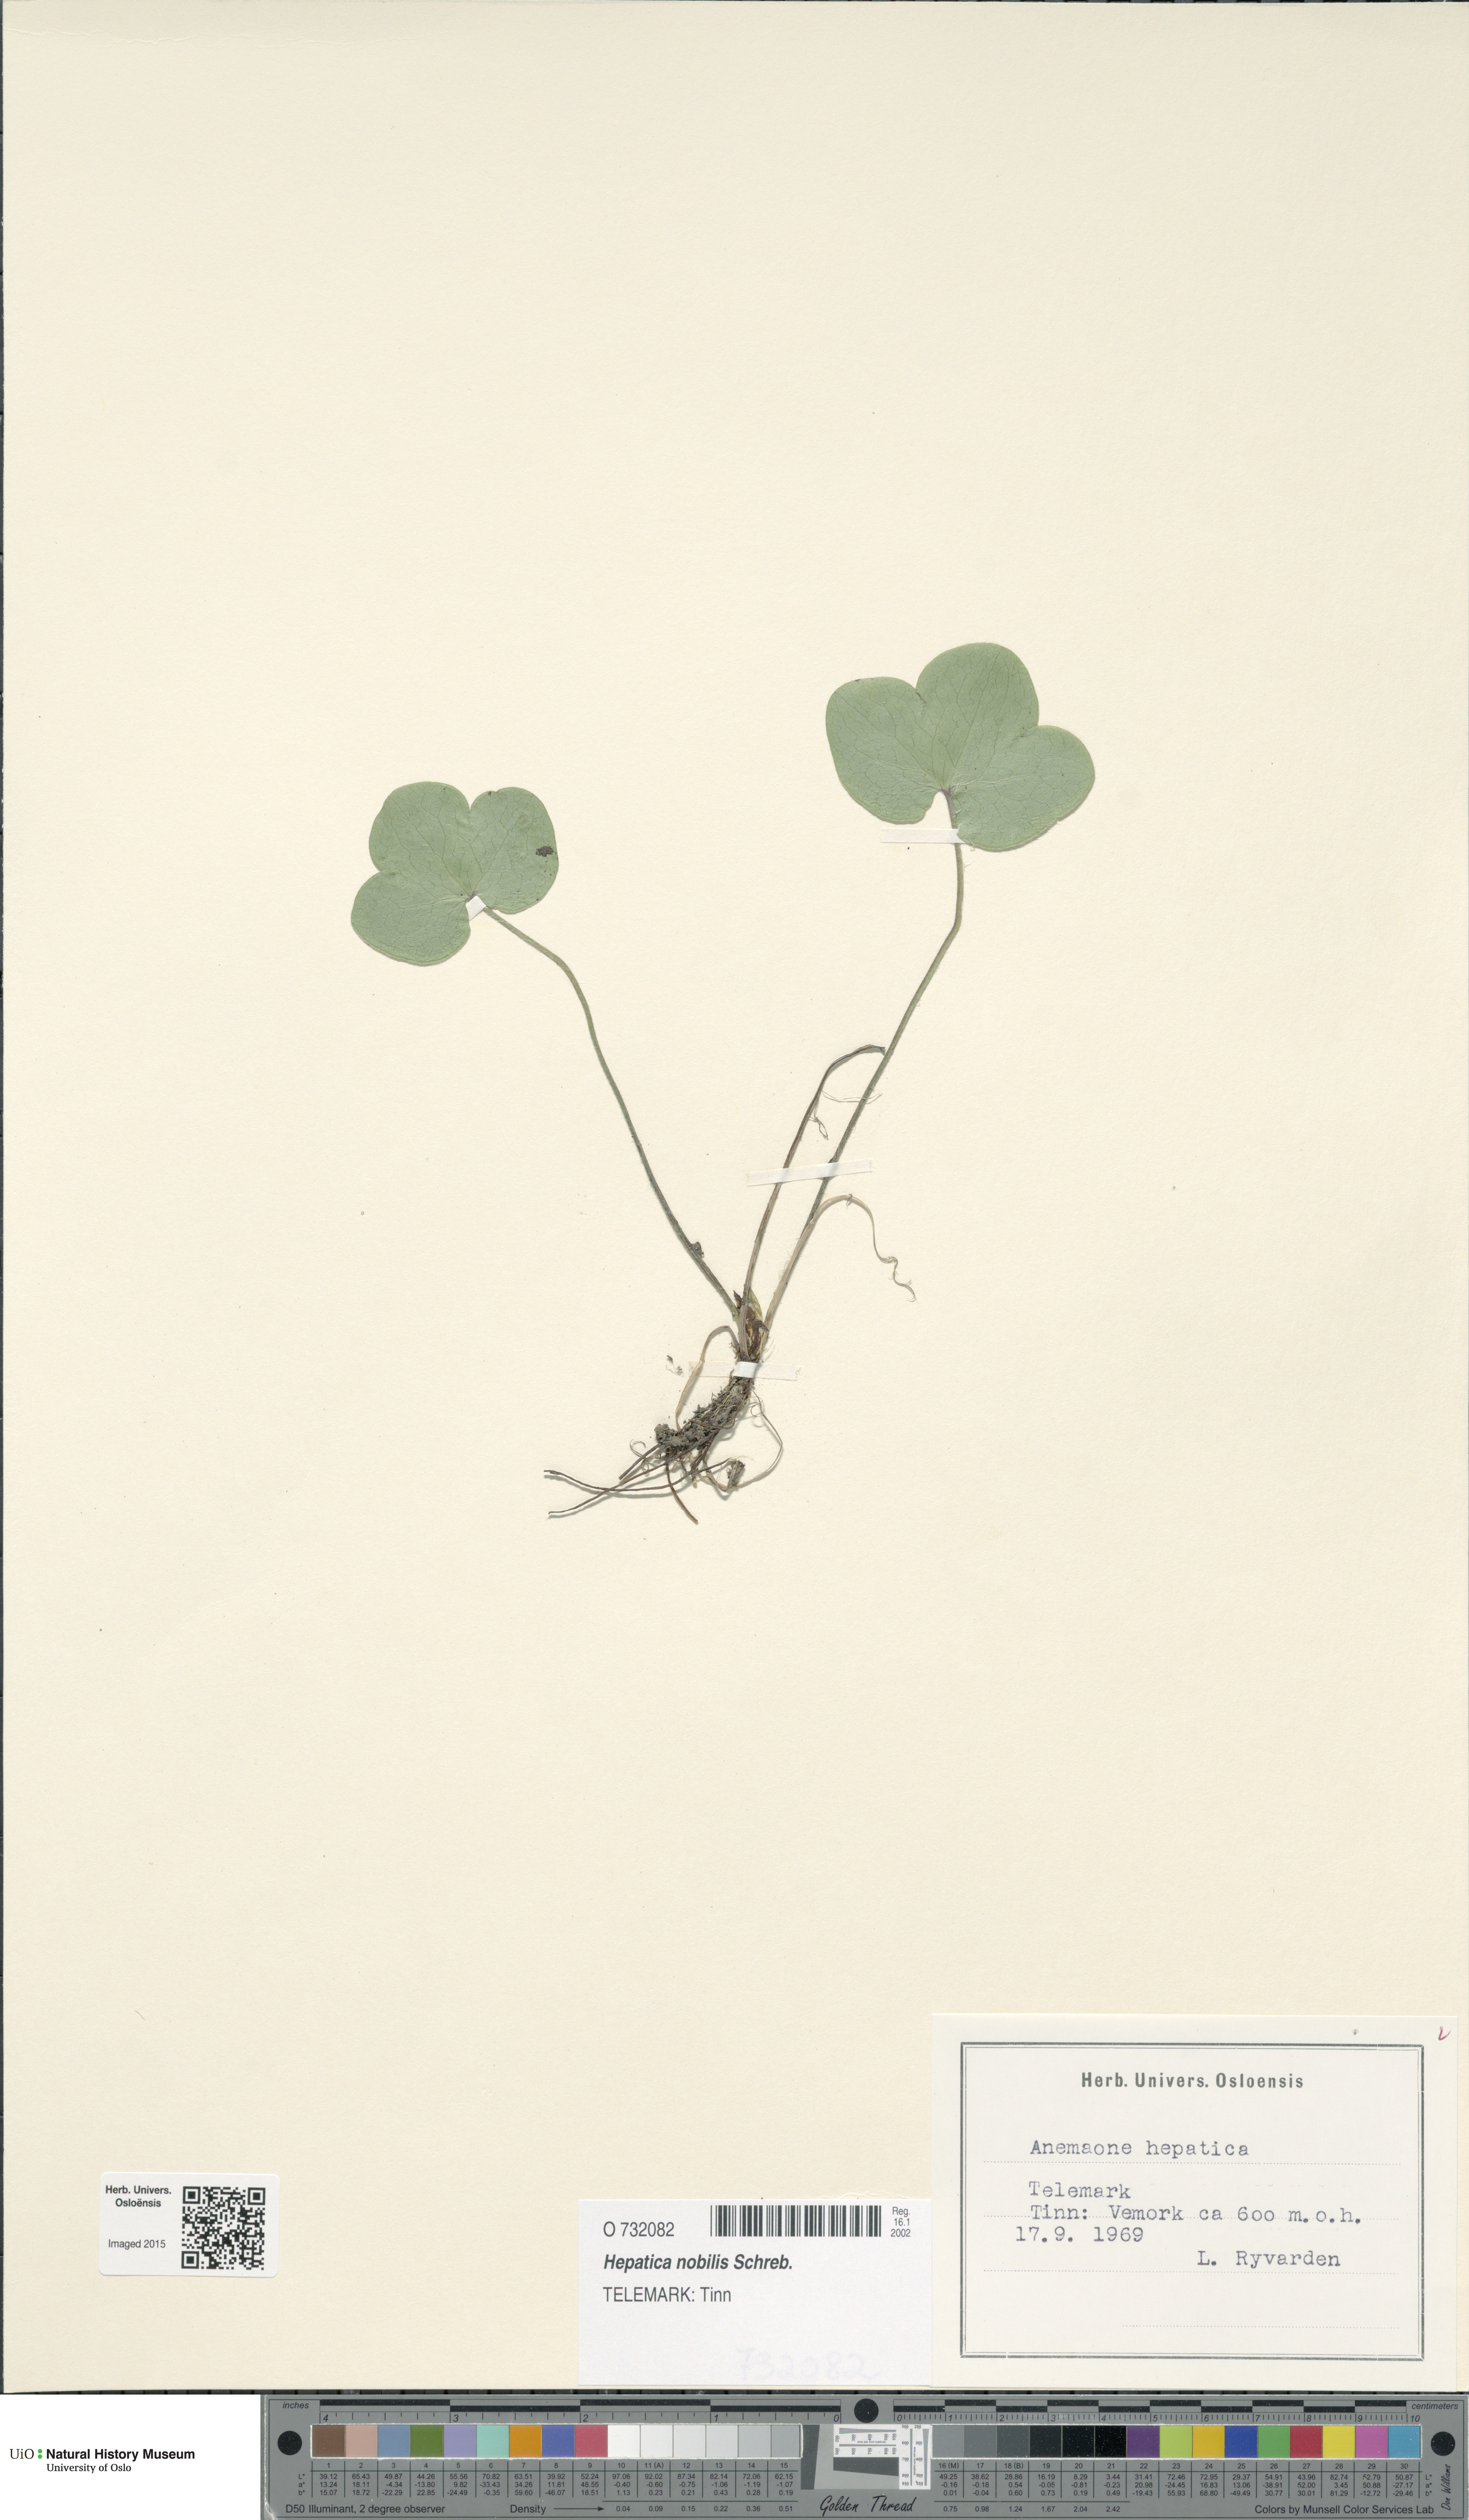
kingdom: Plantae
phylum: Tracheophyta
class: Magnoliopsida
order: Ranunculales
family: Ranunculaceae
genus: Hepatica
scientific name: Hepatica nobilis
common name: Liverleaf
